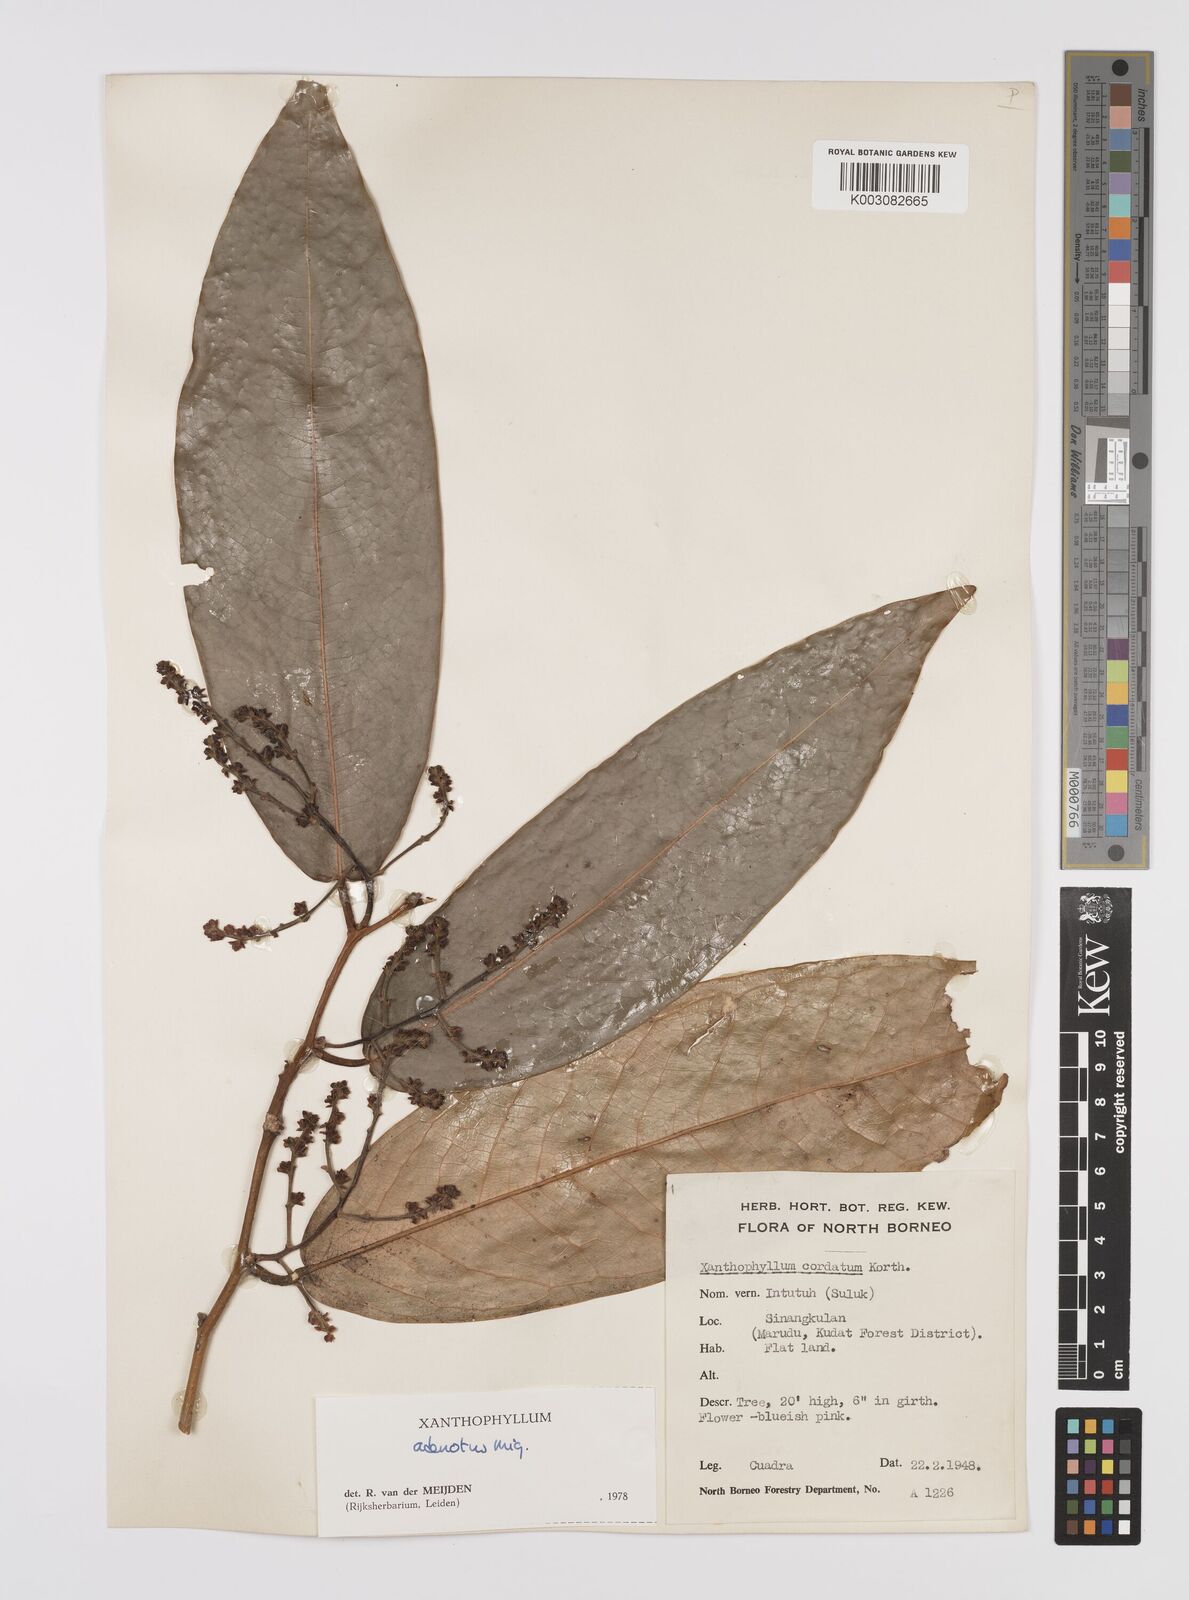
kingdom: Plantae
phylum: Tracheophyta
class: Magnoliopsida
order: Fabales
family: Polygalaceae
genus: Xanthophyllum
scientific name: Xanthophyllum adenotus
